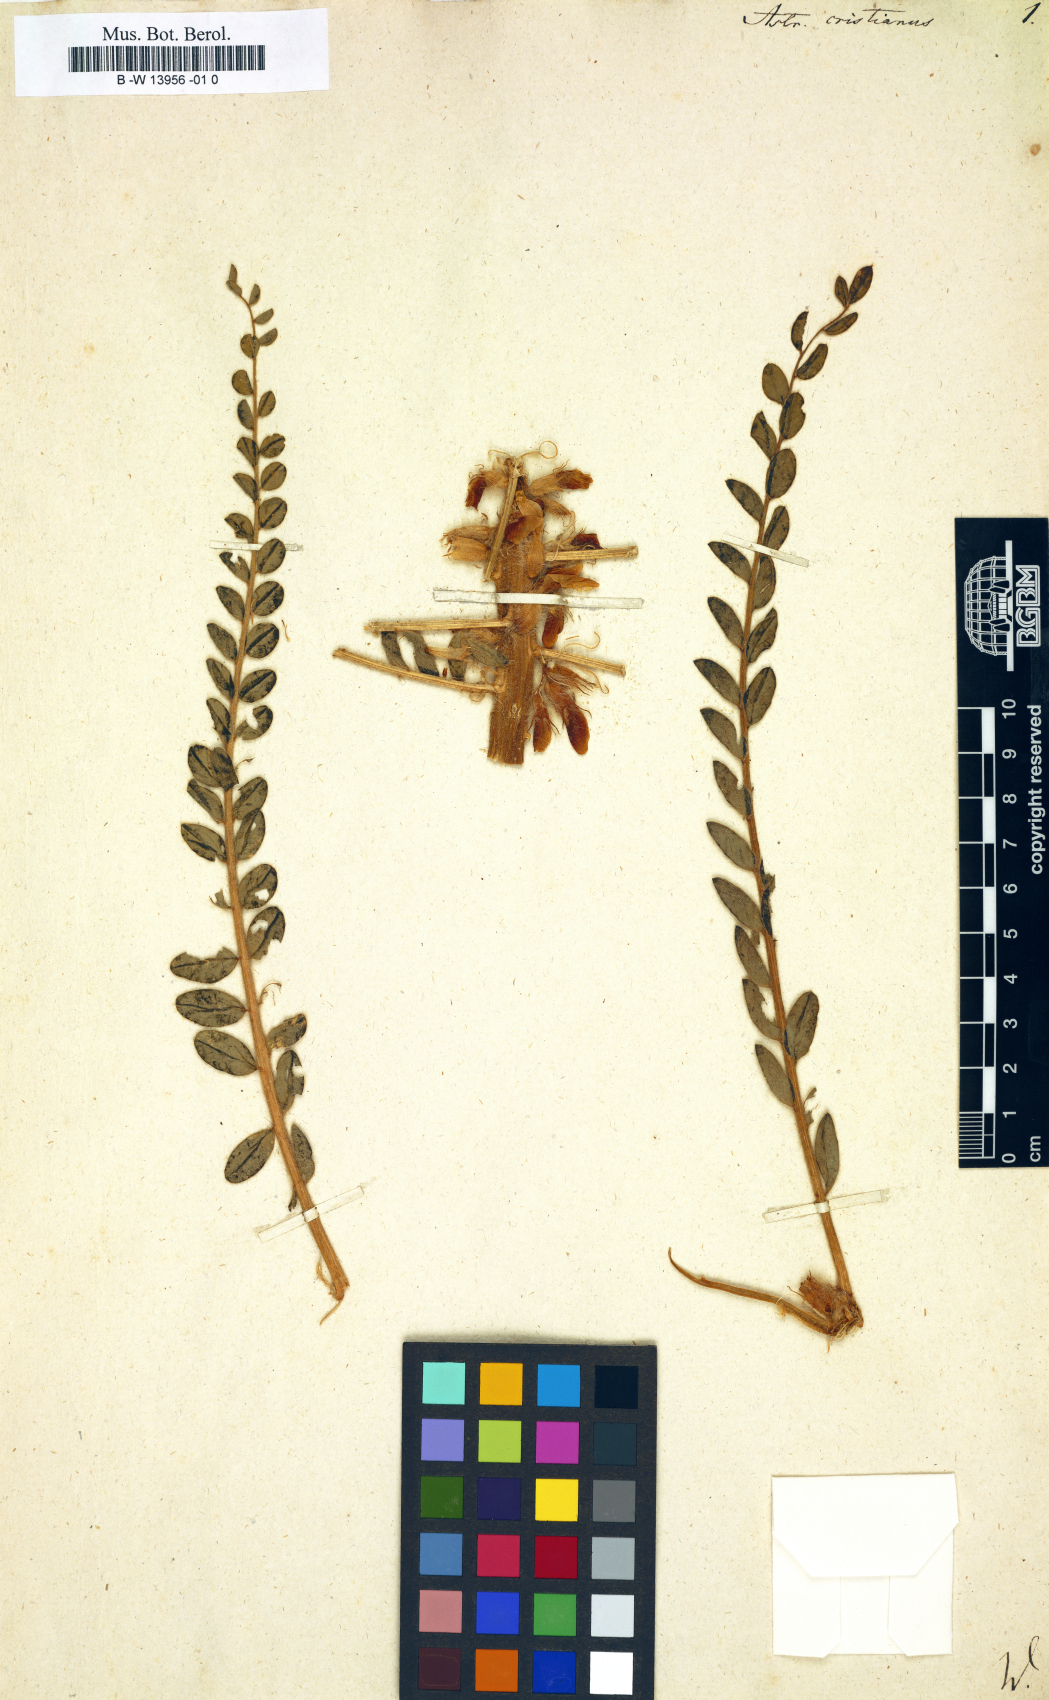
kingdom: Plantae
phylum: Tracheophyta
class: Magnoliopsida
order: Fabales
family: Fabaceae
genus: Astragalus
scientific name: Astragalus echinatus
